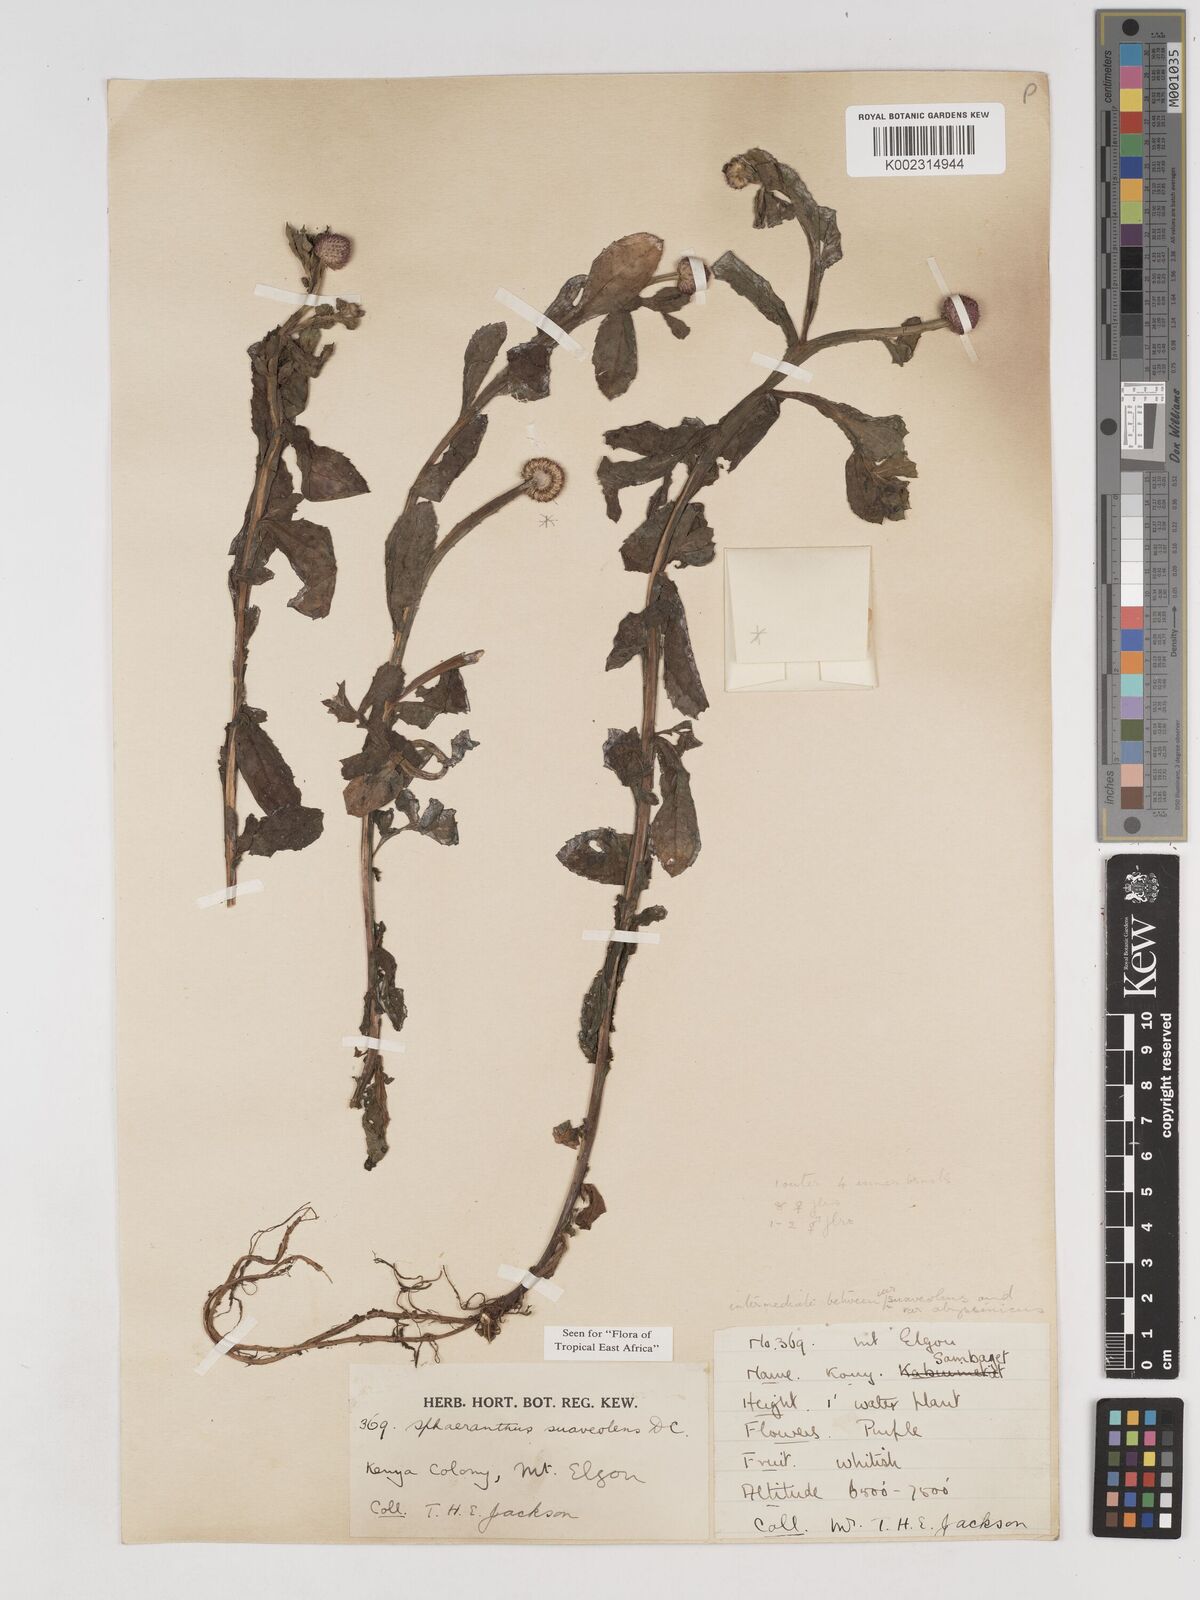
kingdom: Plantae
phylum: Tracheophyta
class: Magnoliopsida
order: Asterales
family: Asteraceae
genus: Sphaeranthus
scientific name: Sphaeranthus suaveolens
